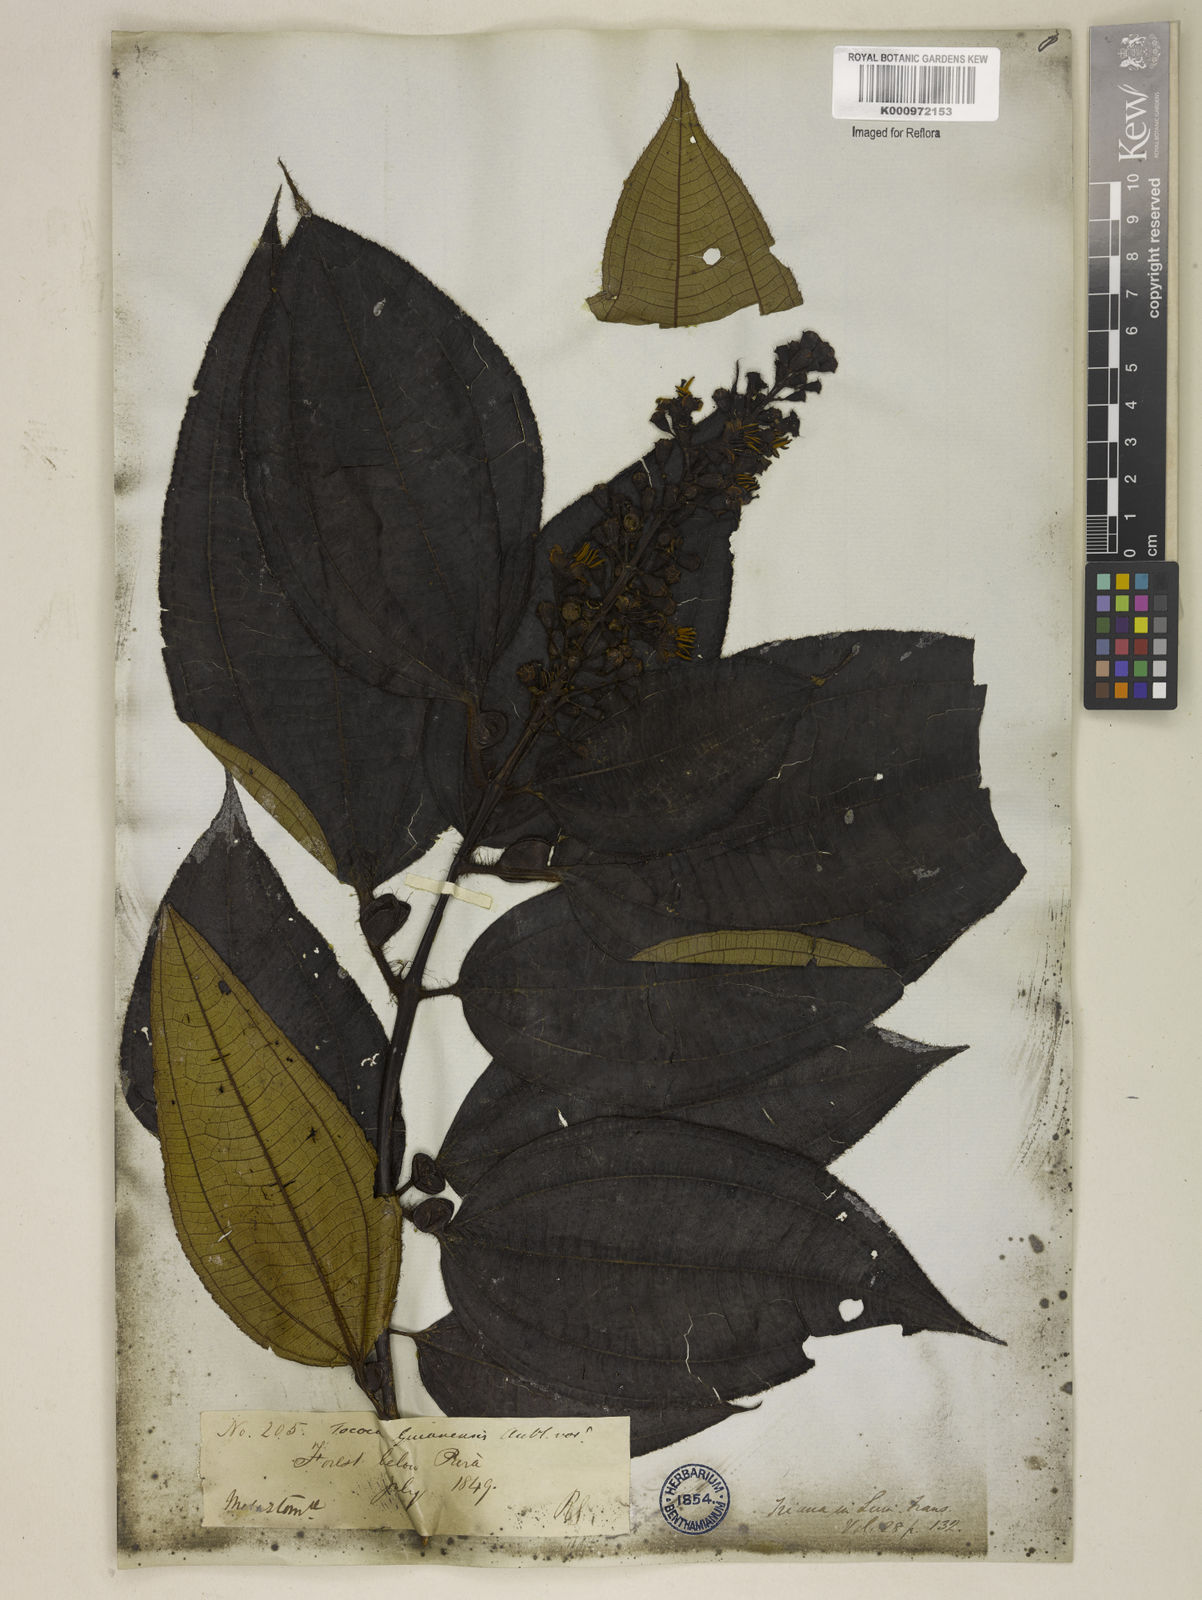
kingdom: Plantae
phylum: Tracheophyta
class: Magnoliopsida
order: Myrtales
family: Melastomataceae
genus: Miconia
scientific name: Miconia tococa
